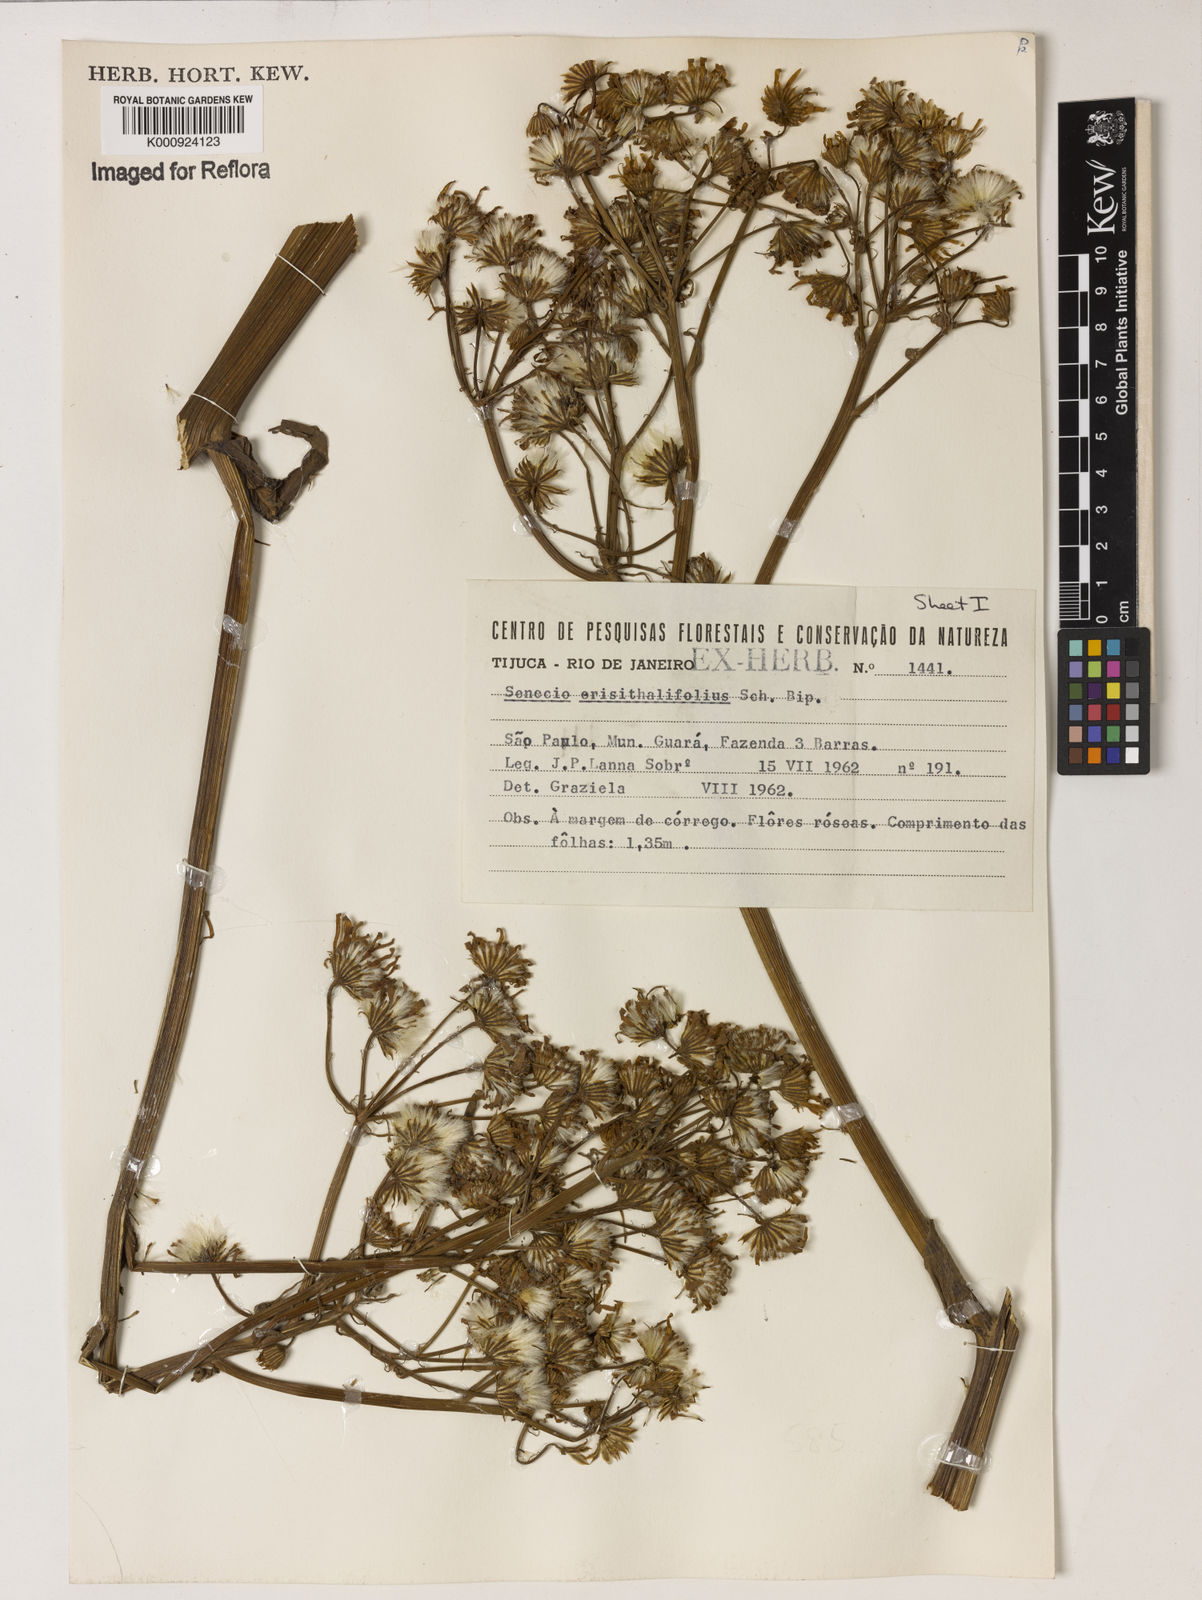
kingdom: Plantae
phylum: Tracheophyta
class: Magnoliopsida
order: Asterales
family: Asteraceae
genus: Senecio
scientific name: Senecio erisithalifolius
